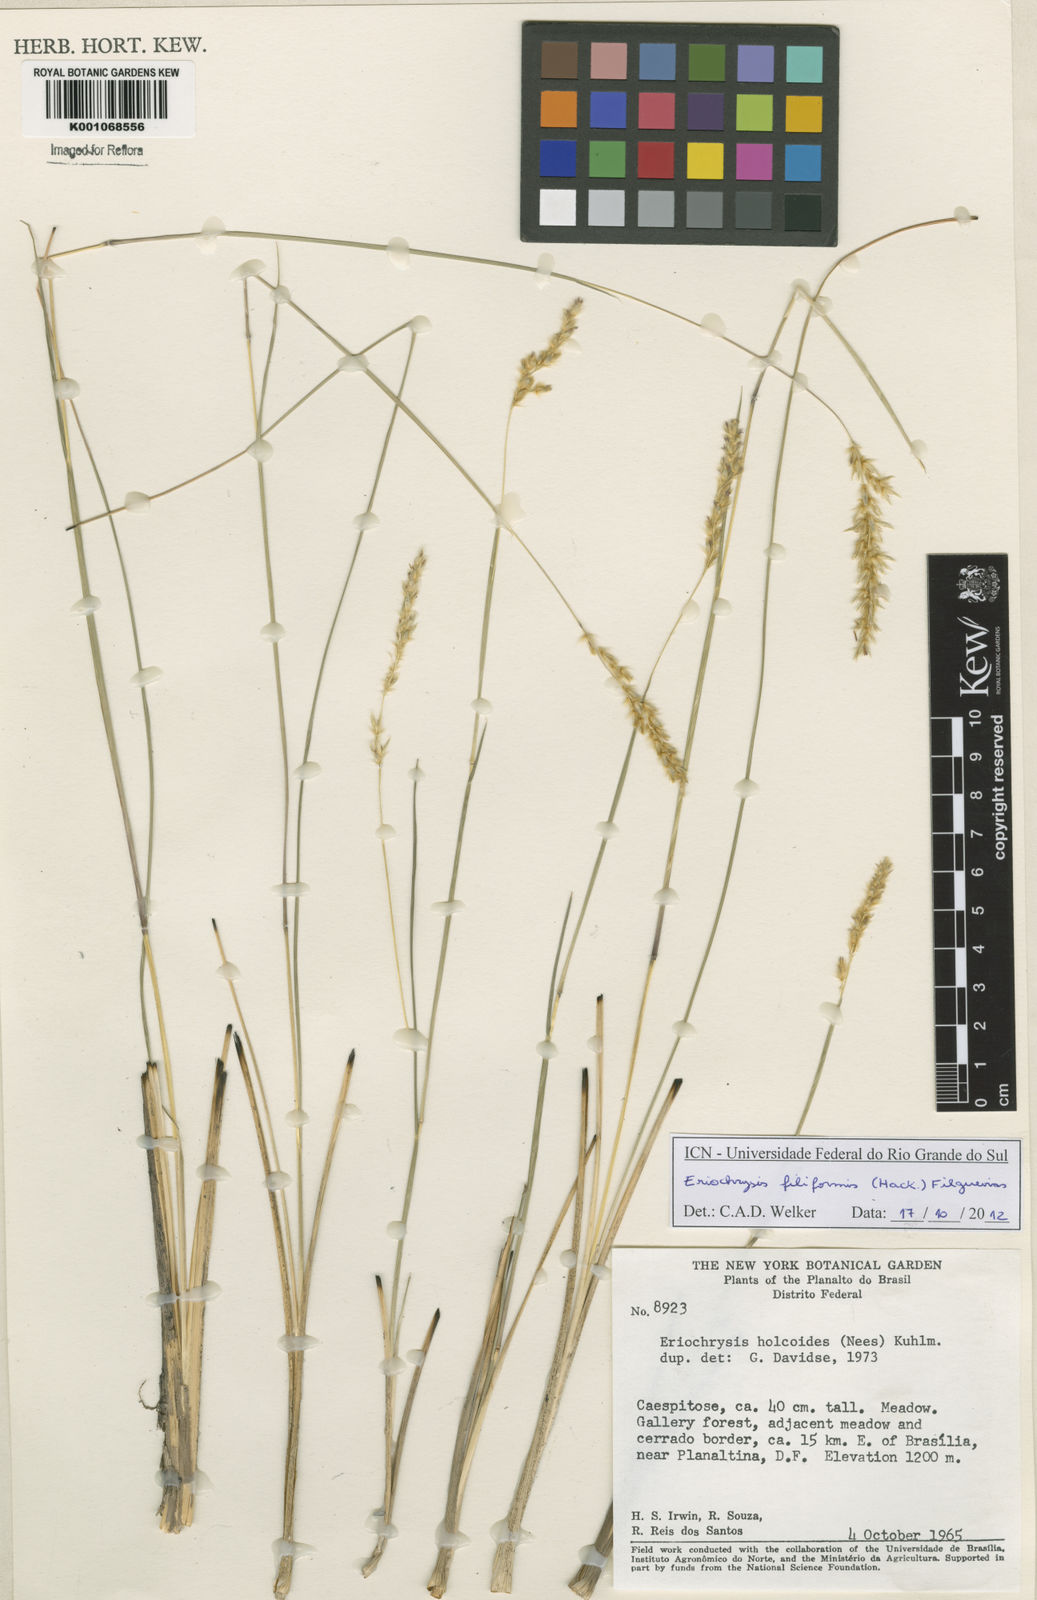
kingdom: Plantae
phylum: Tracheophyta
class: Liliopsida
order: Poales
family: Poaceae
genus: Eriochrysis
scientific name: Eriochrysis filiformis
